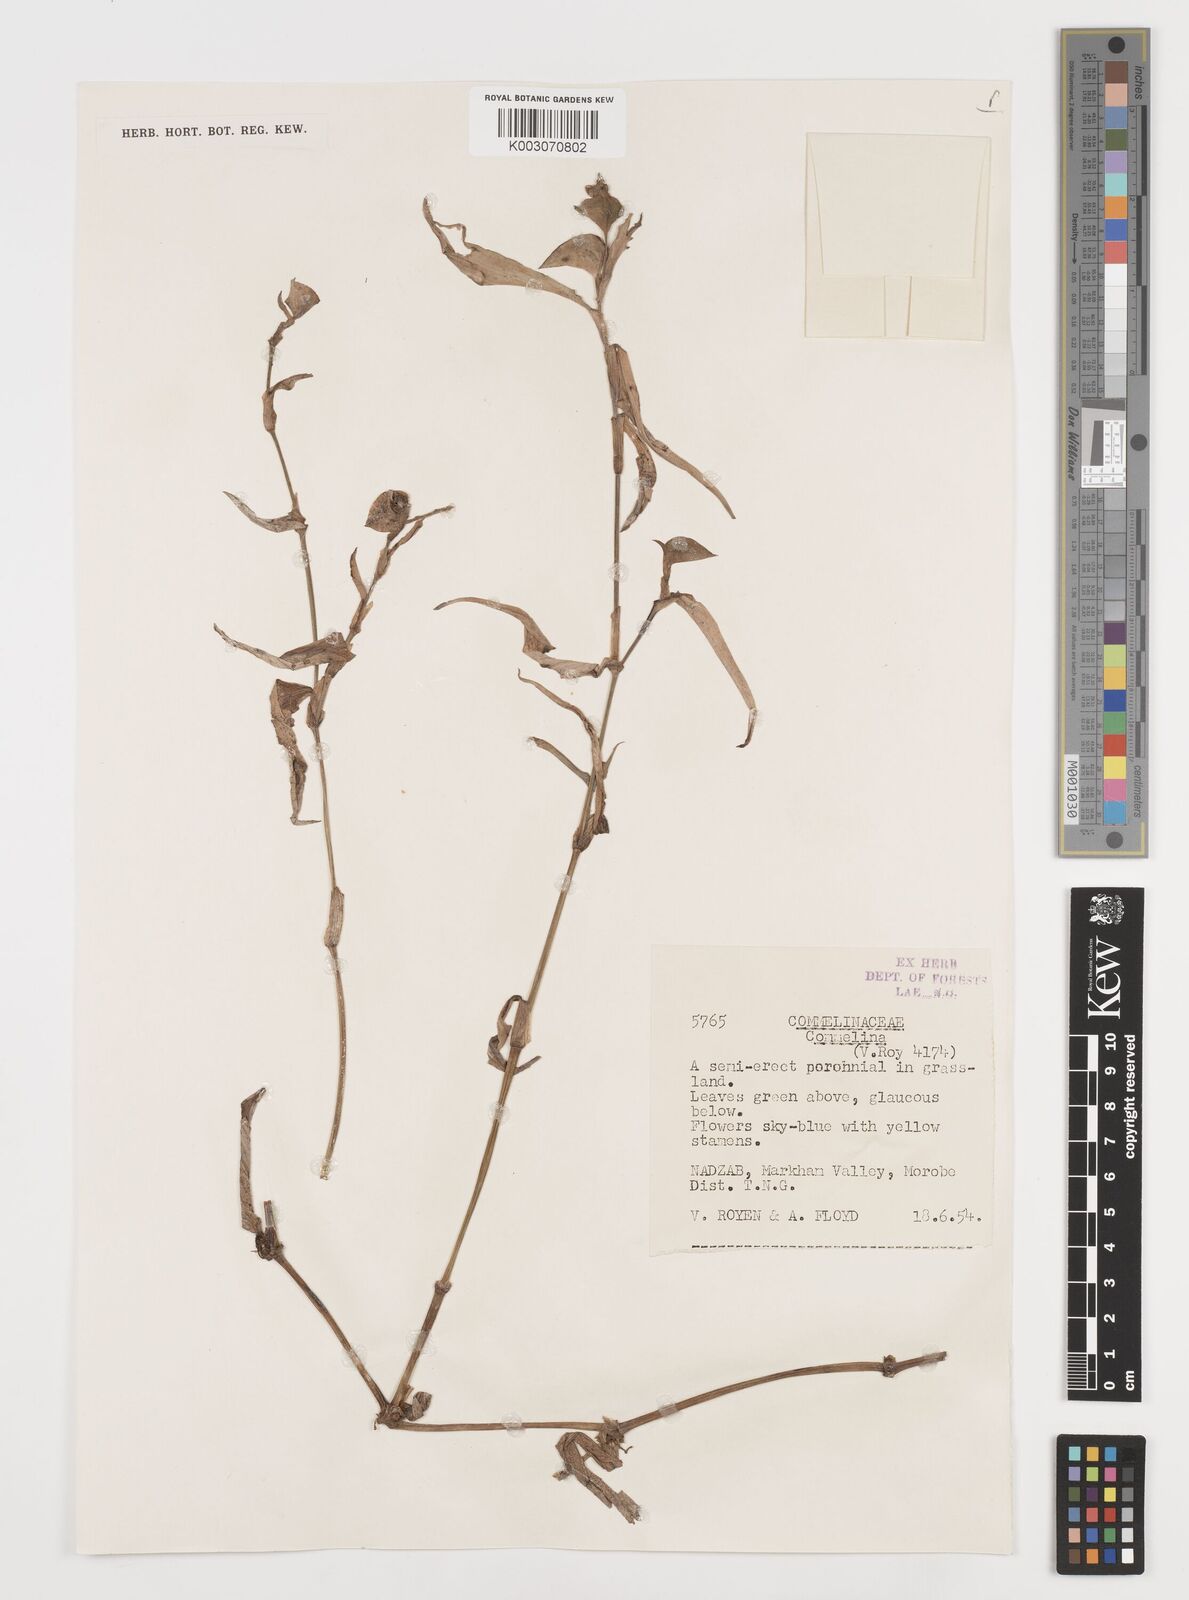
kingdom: Plantae
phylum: Tracheophyta
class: Liliopsida
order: Commelinales
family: Commelinaceae
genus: Commelina
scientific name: Commelina
